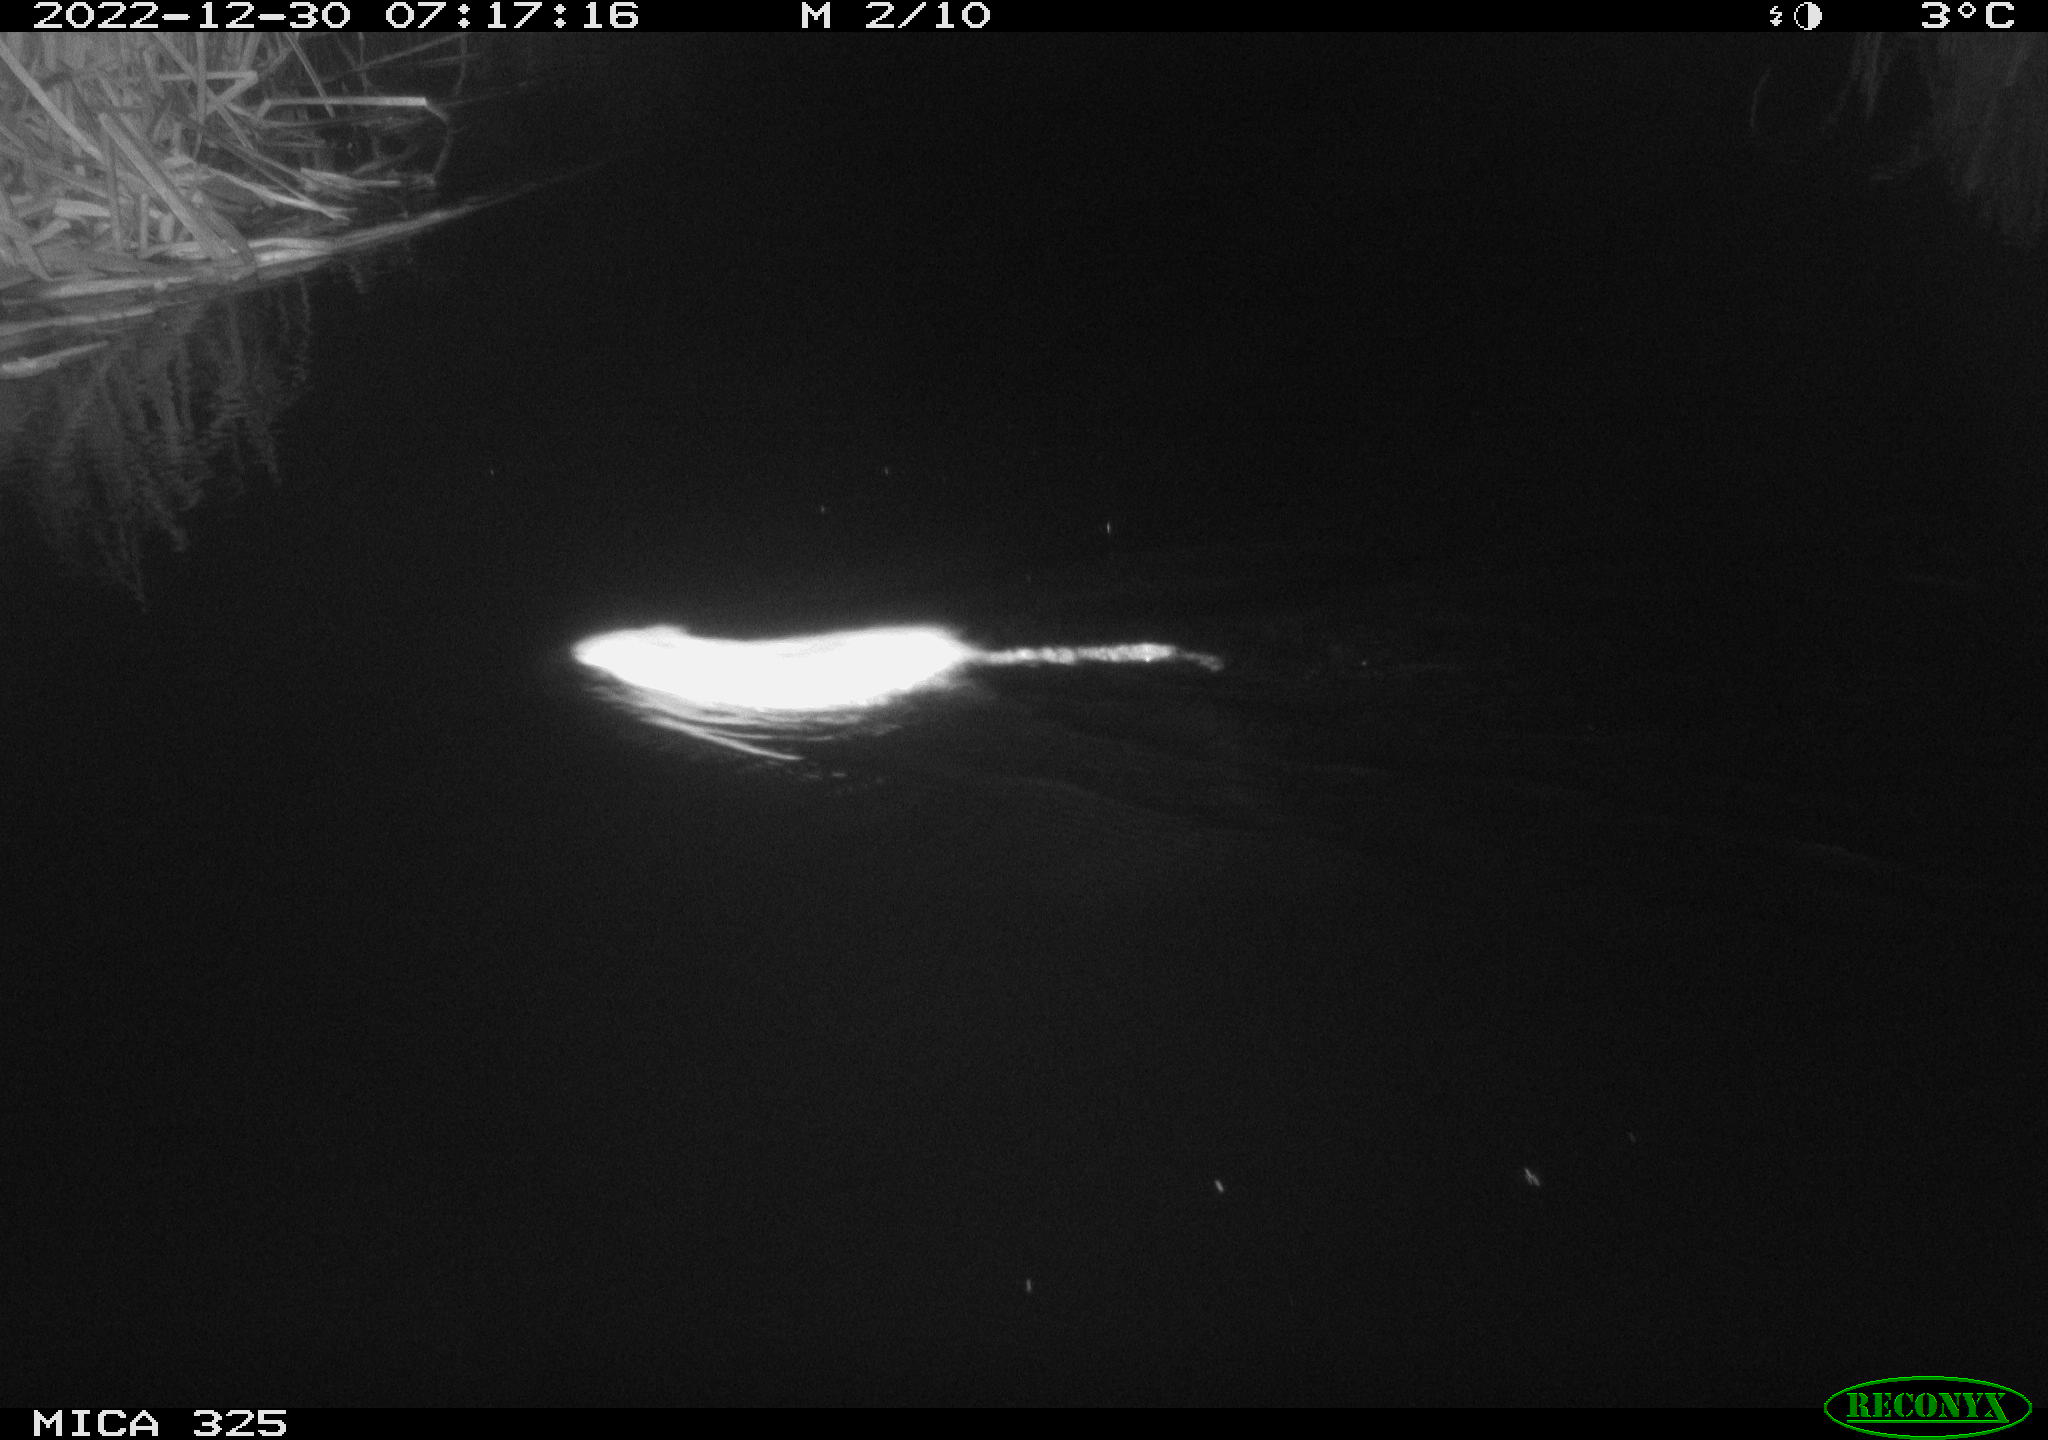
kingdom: Animalia
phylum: Chordata
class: Mammalia
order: Rodentia
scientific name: Rodentia
